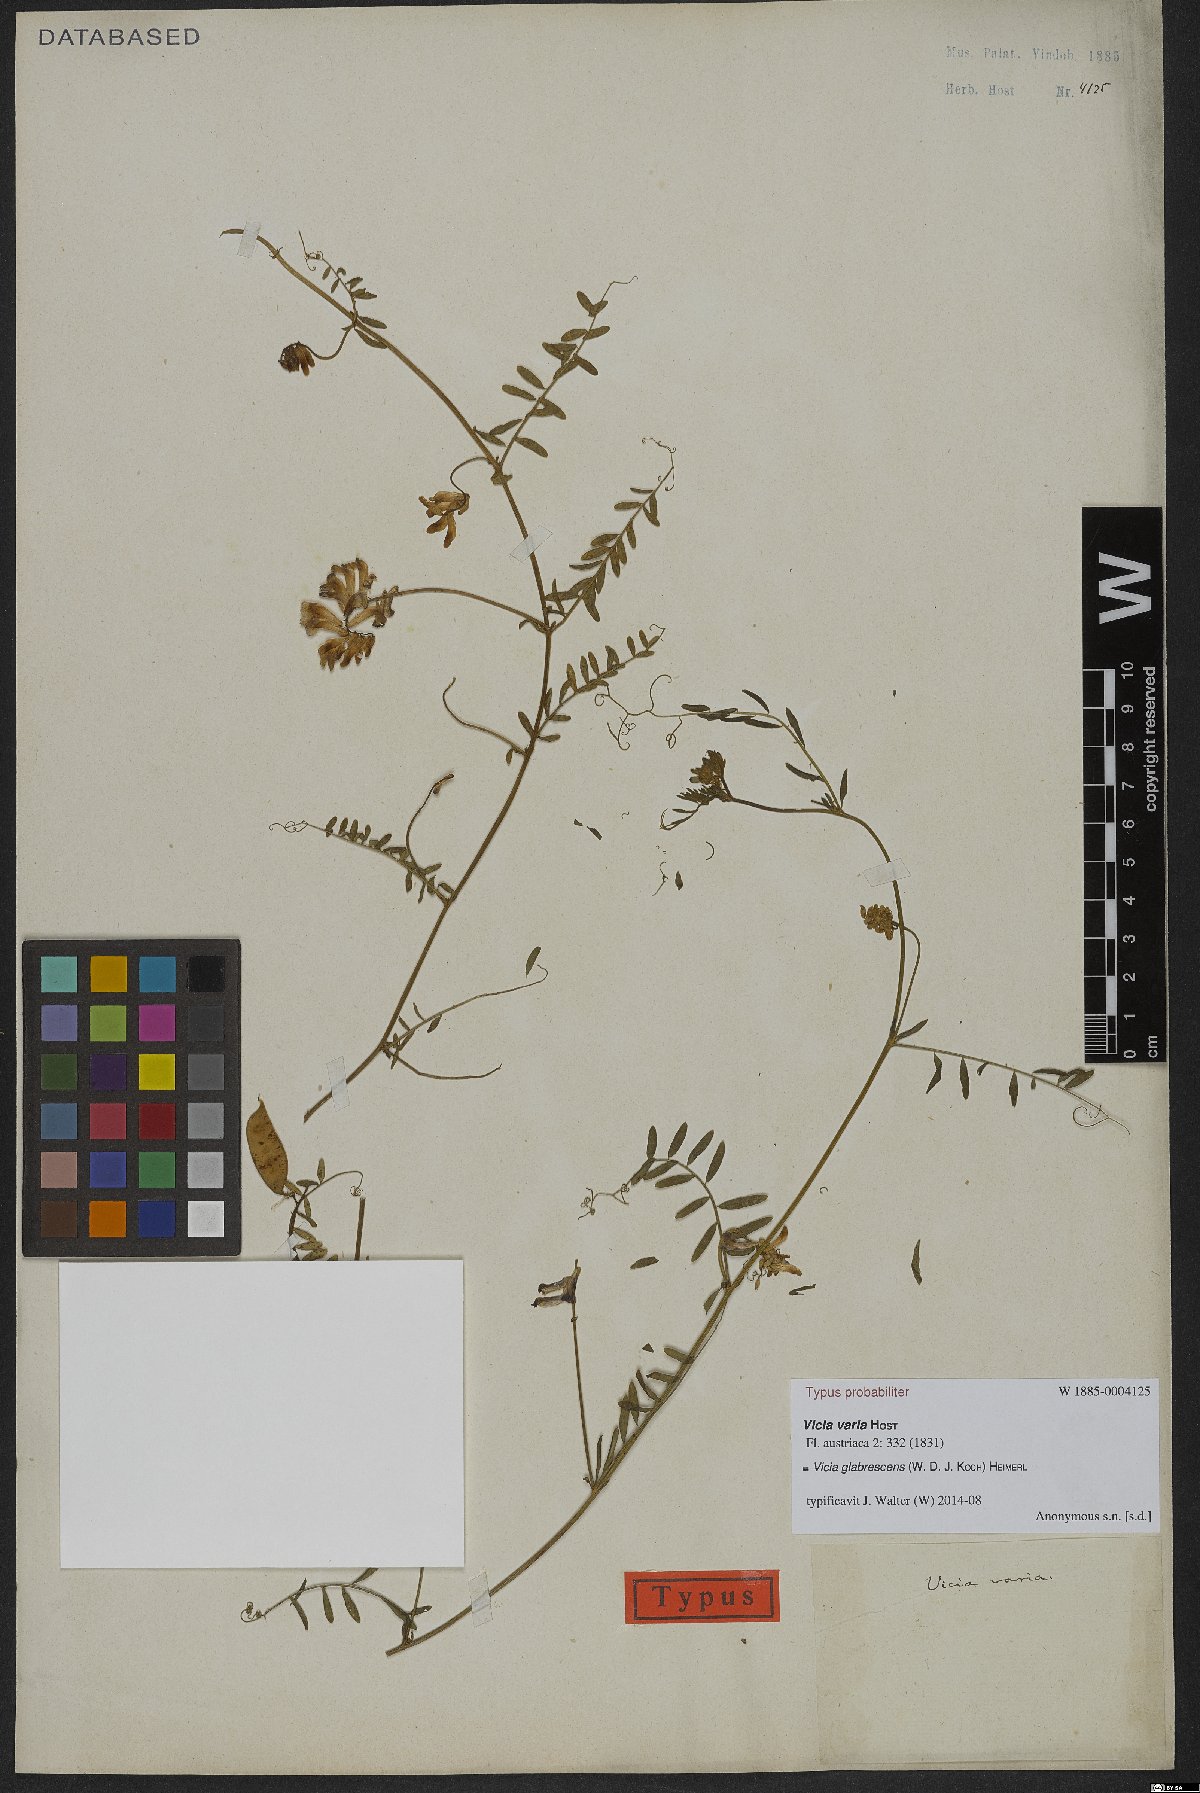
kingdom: Plantae
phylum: Tracheophyta
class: Magnoliopsida
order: Fabales
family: Fabaceae
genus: Vicia
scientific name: Vicia villosa
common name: Fodder vetch
